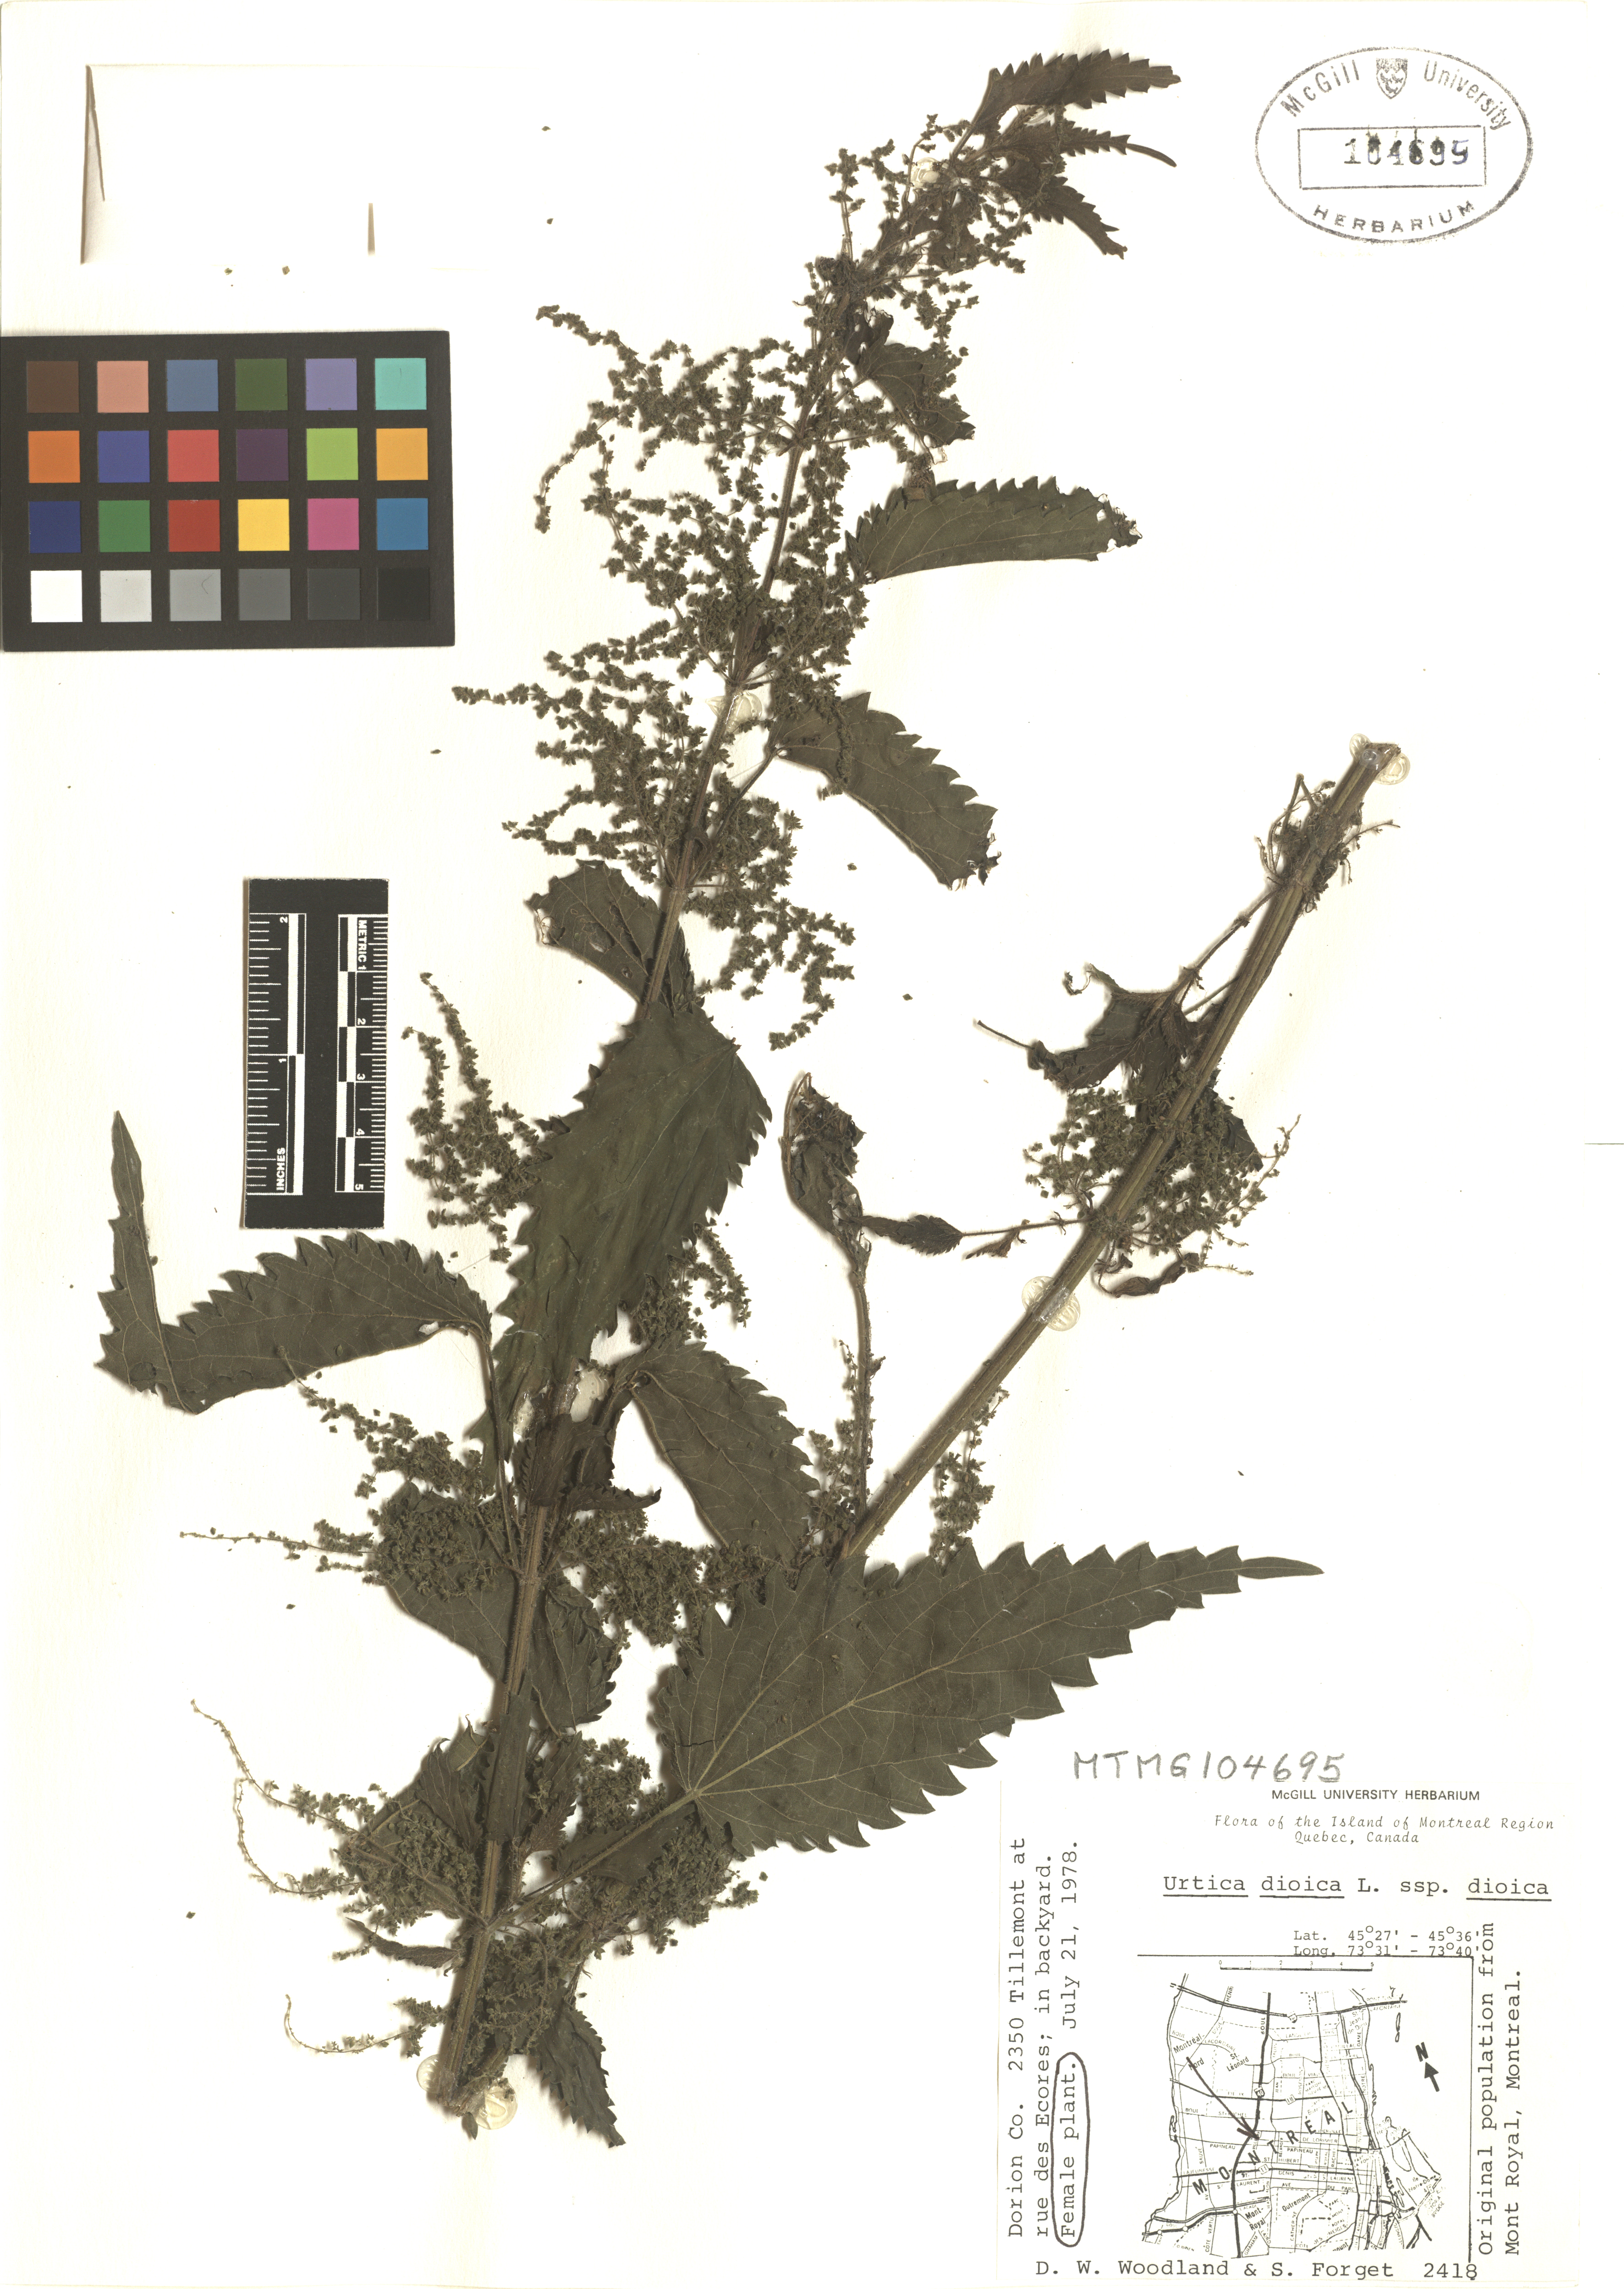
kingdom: Plantae
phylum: Tracheophyta
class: Magnoliopsida
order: Rosales
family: Urticaceae
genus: Urtica
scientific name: Urtica dioica
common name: Common nettle
